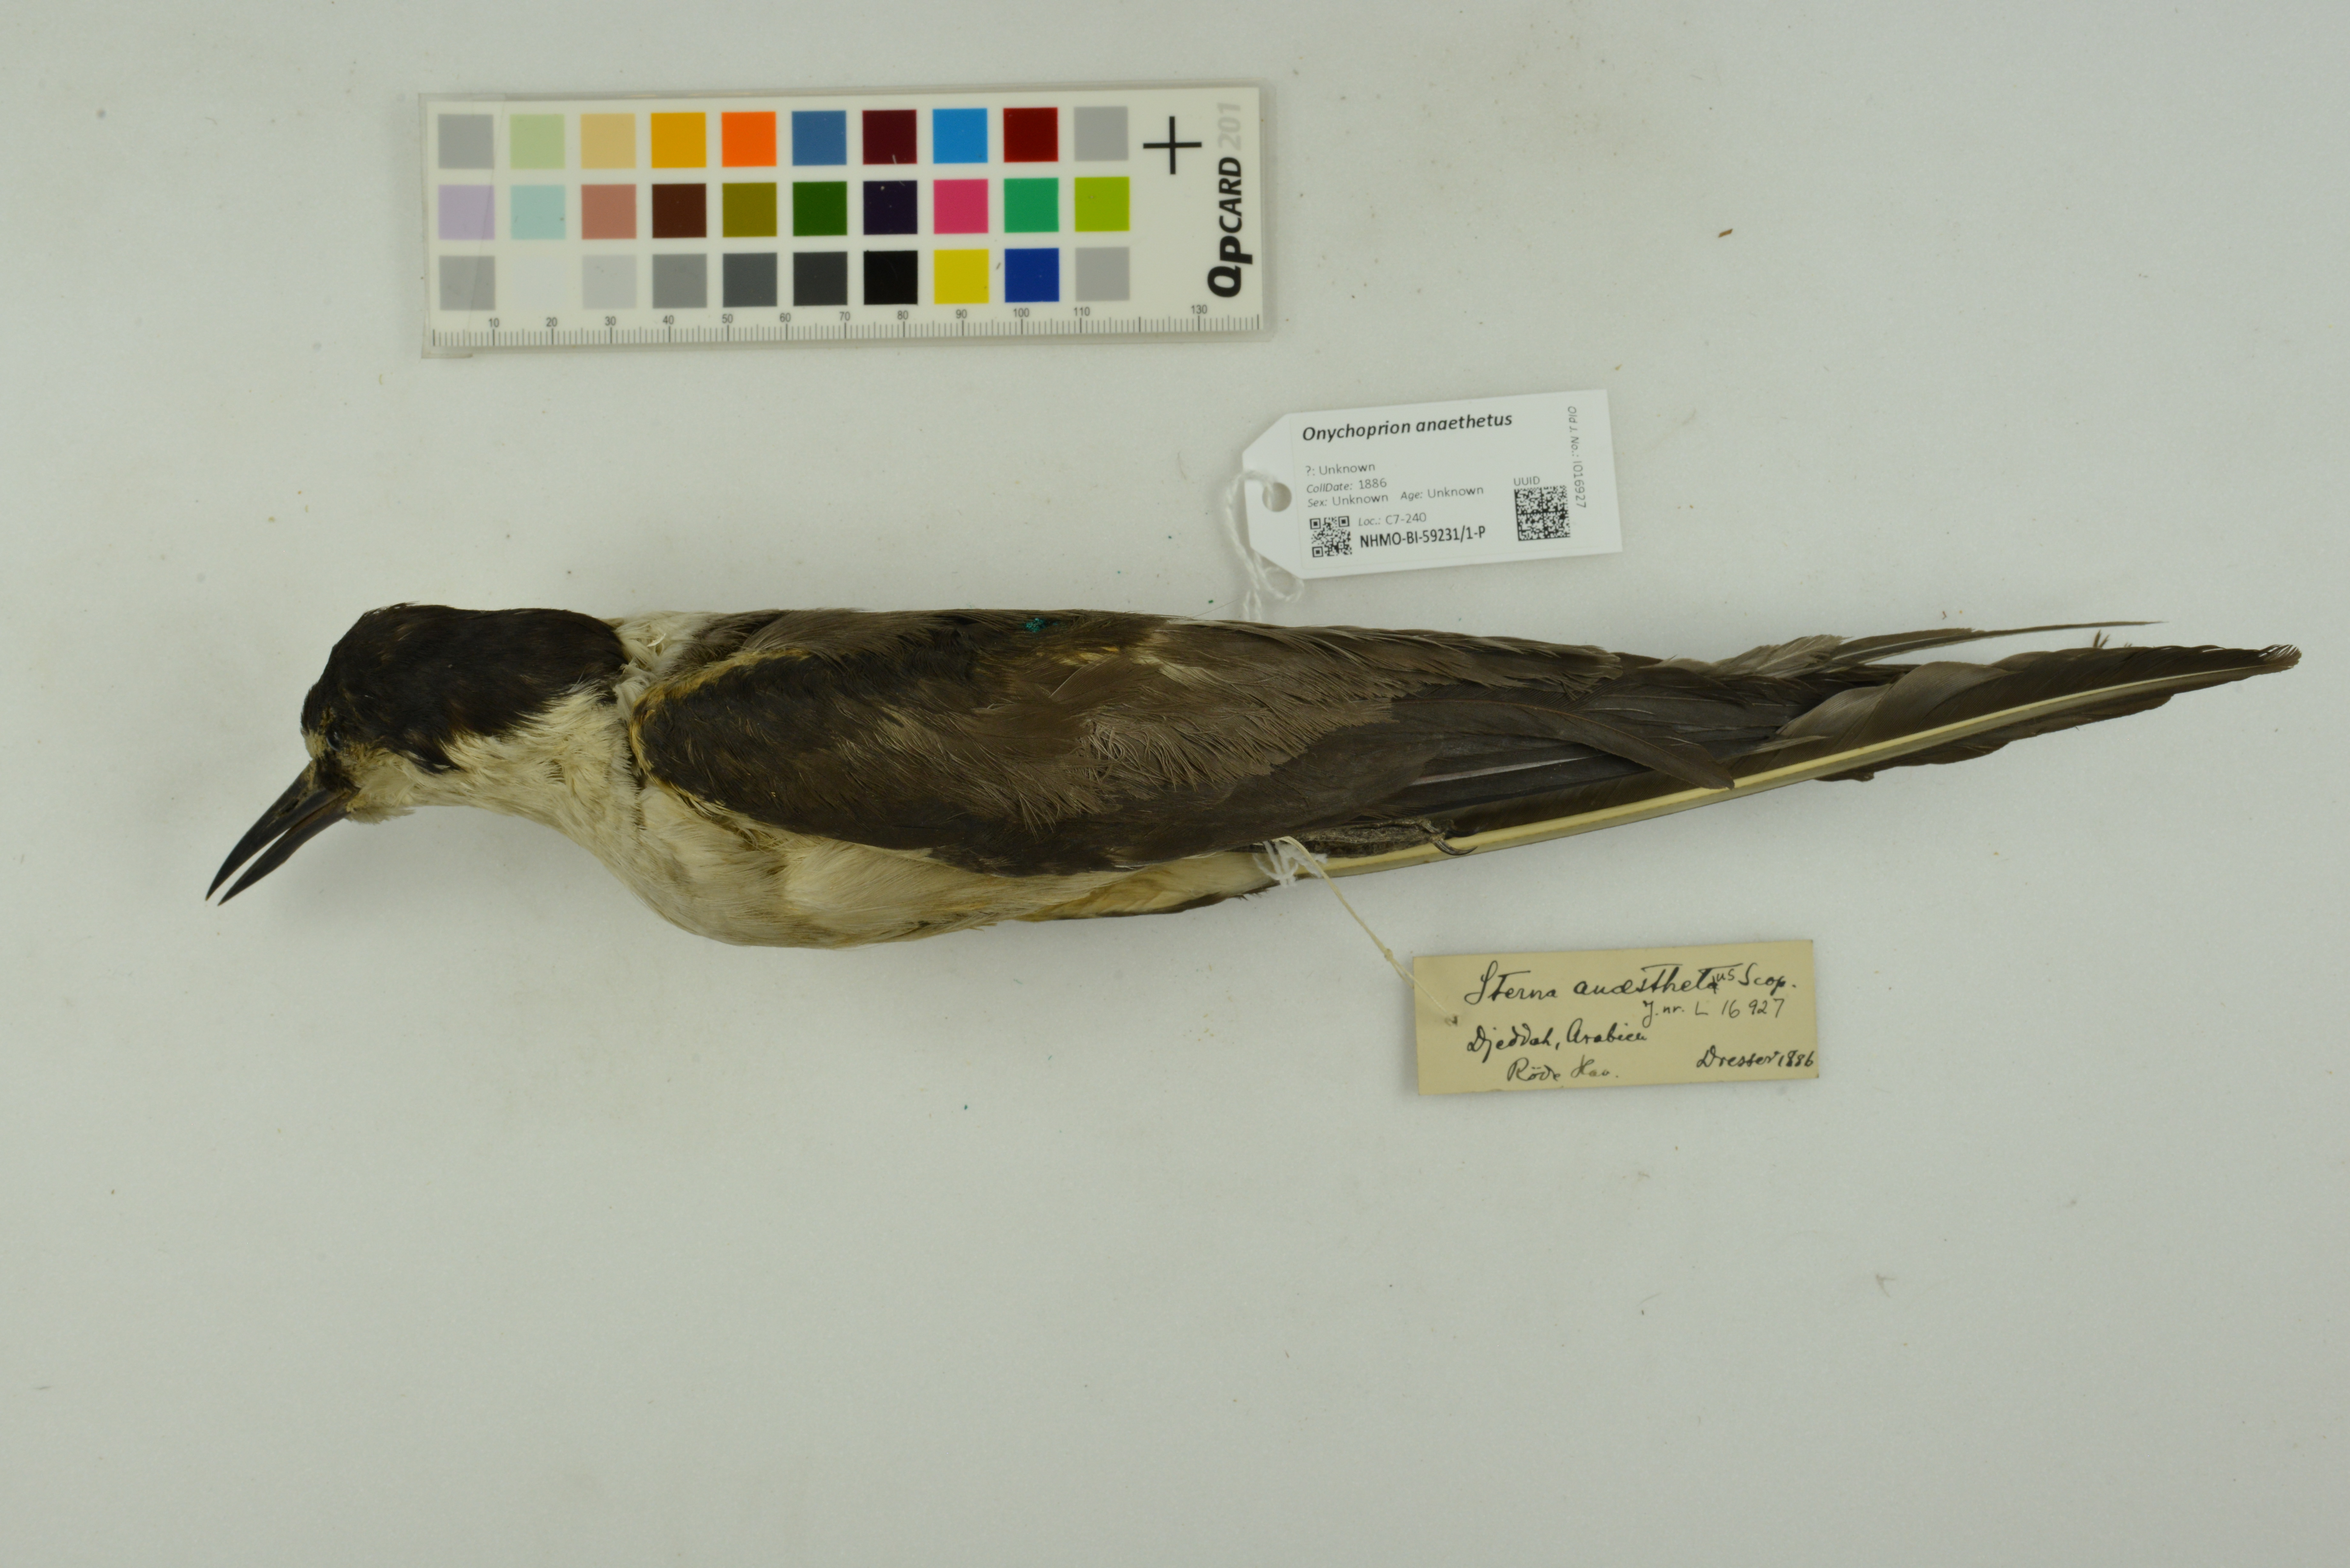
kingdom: Animalia
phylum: Chordata
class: Aves
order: Charadriiformes
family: Laridae
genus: Onychoprion
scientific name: Onychoprion anaethetus
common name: Bridled tern
